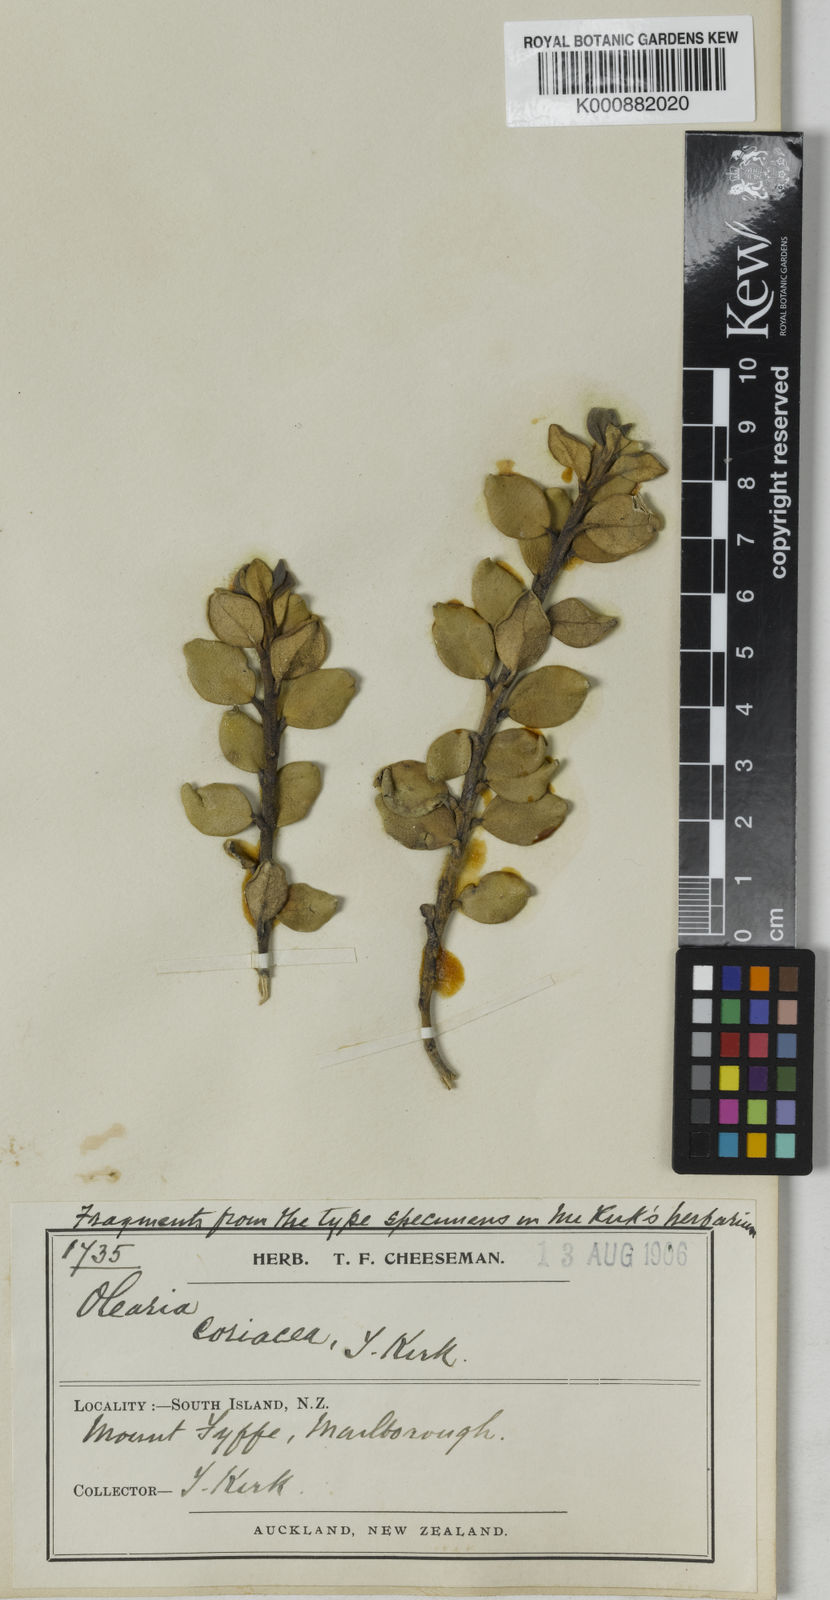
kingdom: Plantae
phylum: Tracheophyta
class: Magnoliopsida
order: Asterales
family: Asteraceae
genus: Olearia
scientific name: Olearia coriacea
